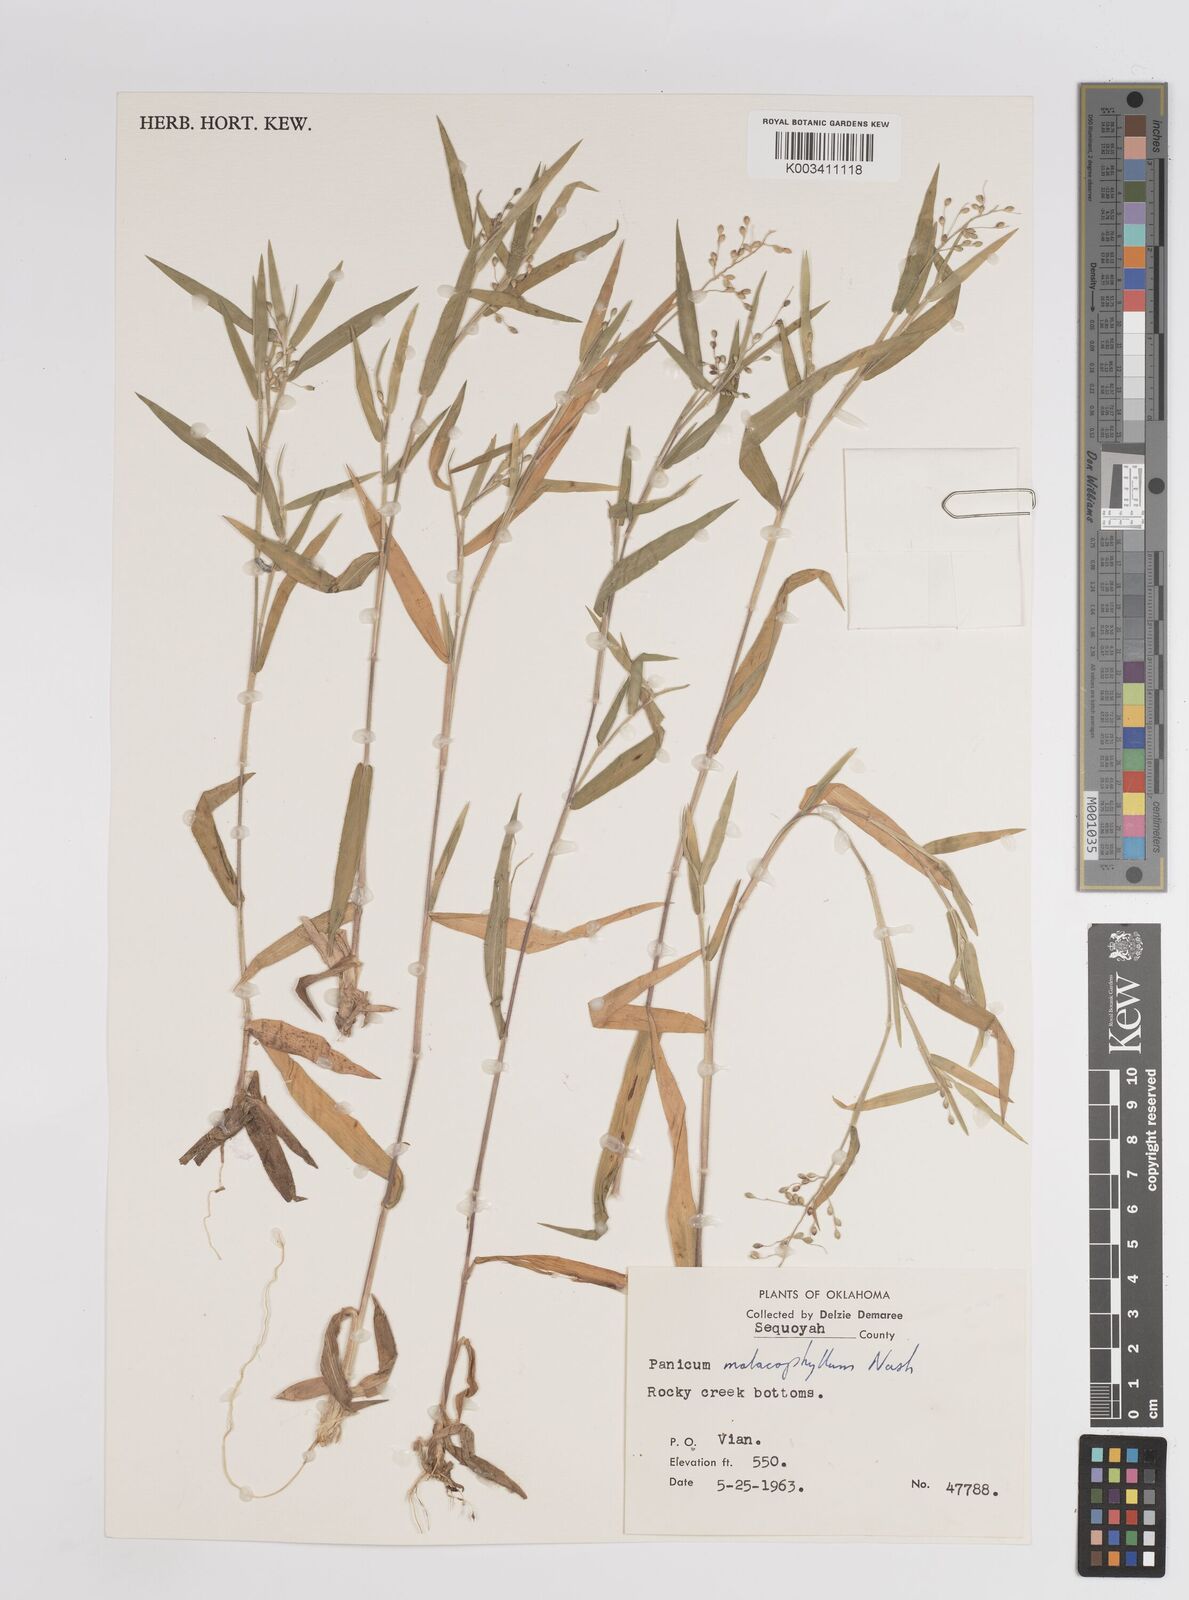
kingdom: Plantae
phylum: Tracheophyta
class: Liliopsida
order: Poales
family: Poaceae
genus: Dichanthelium
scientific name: Dichanthelium malacophyllum
